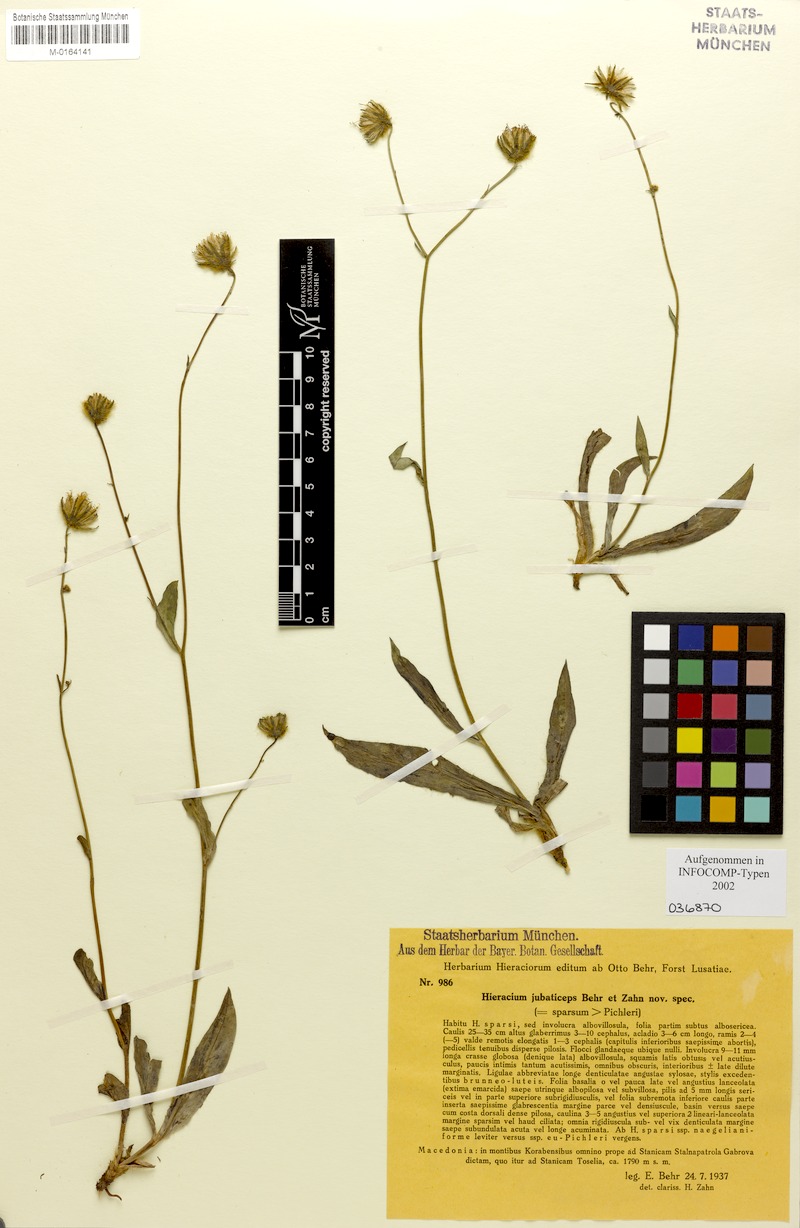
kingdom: Plantae
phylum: Tracheophyta
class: Magnoliopsida
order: Asterales
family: Asteraceae
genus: Hieracium
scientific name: Hieracium jubaticeps
